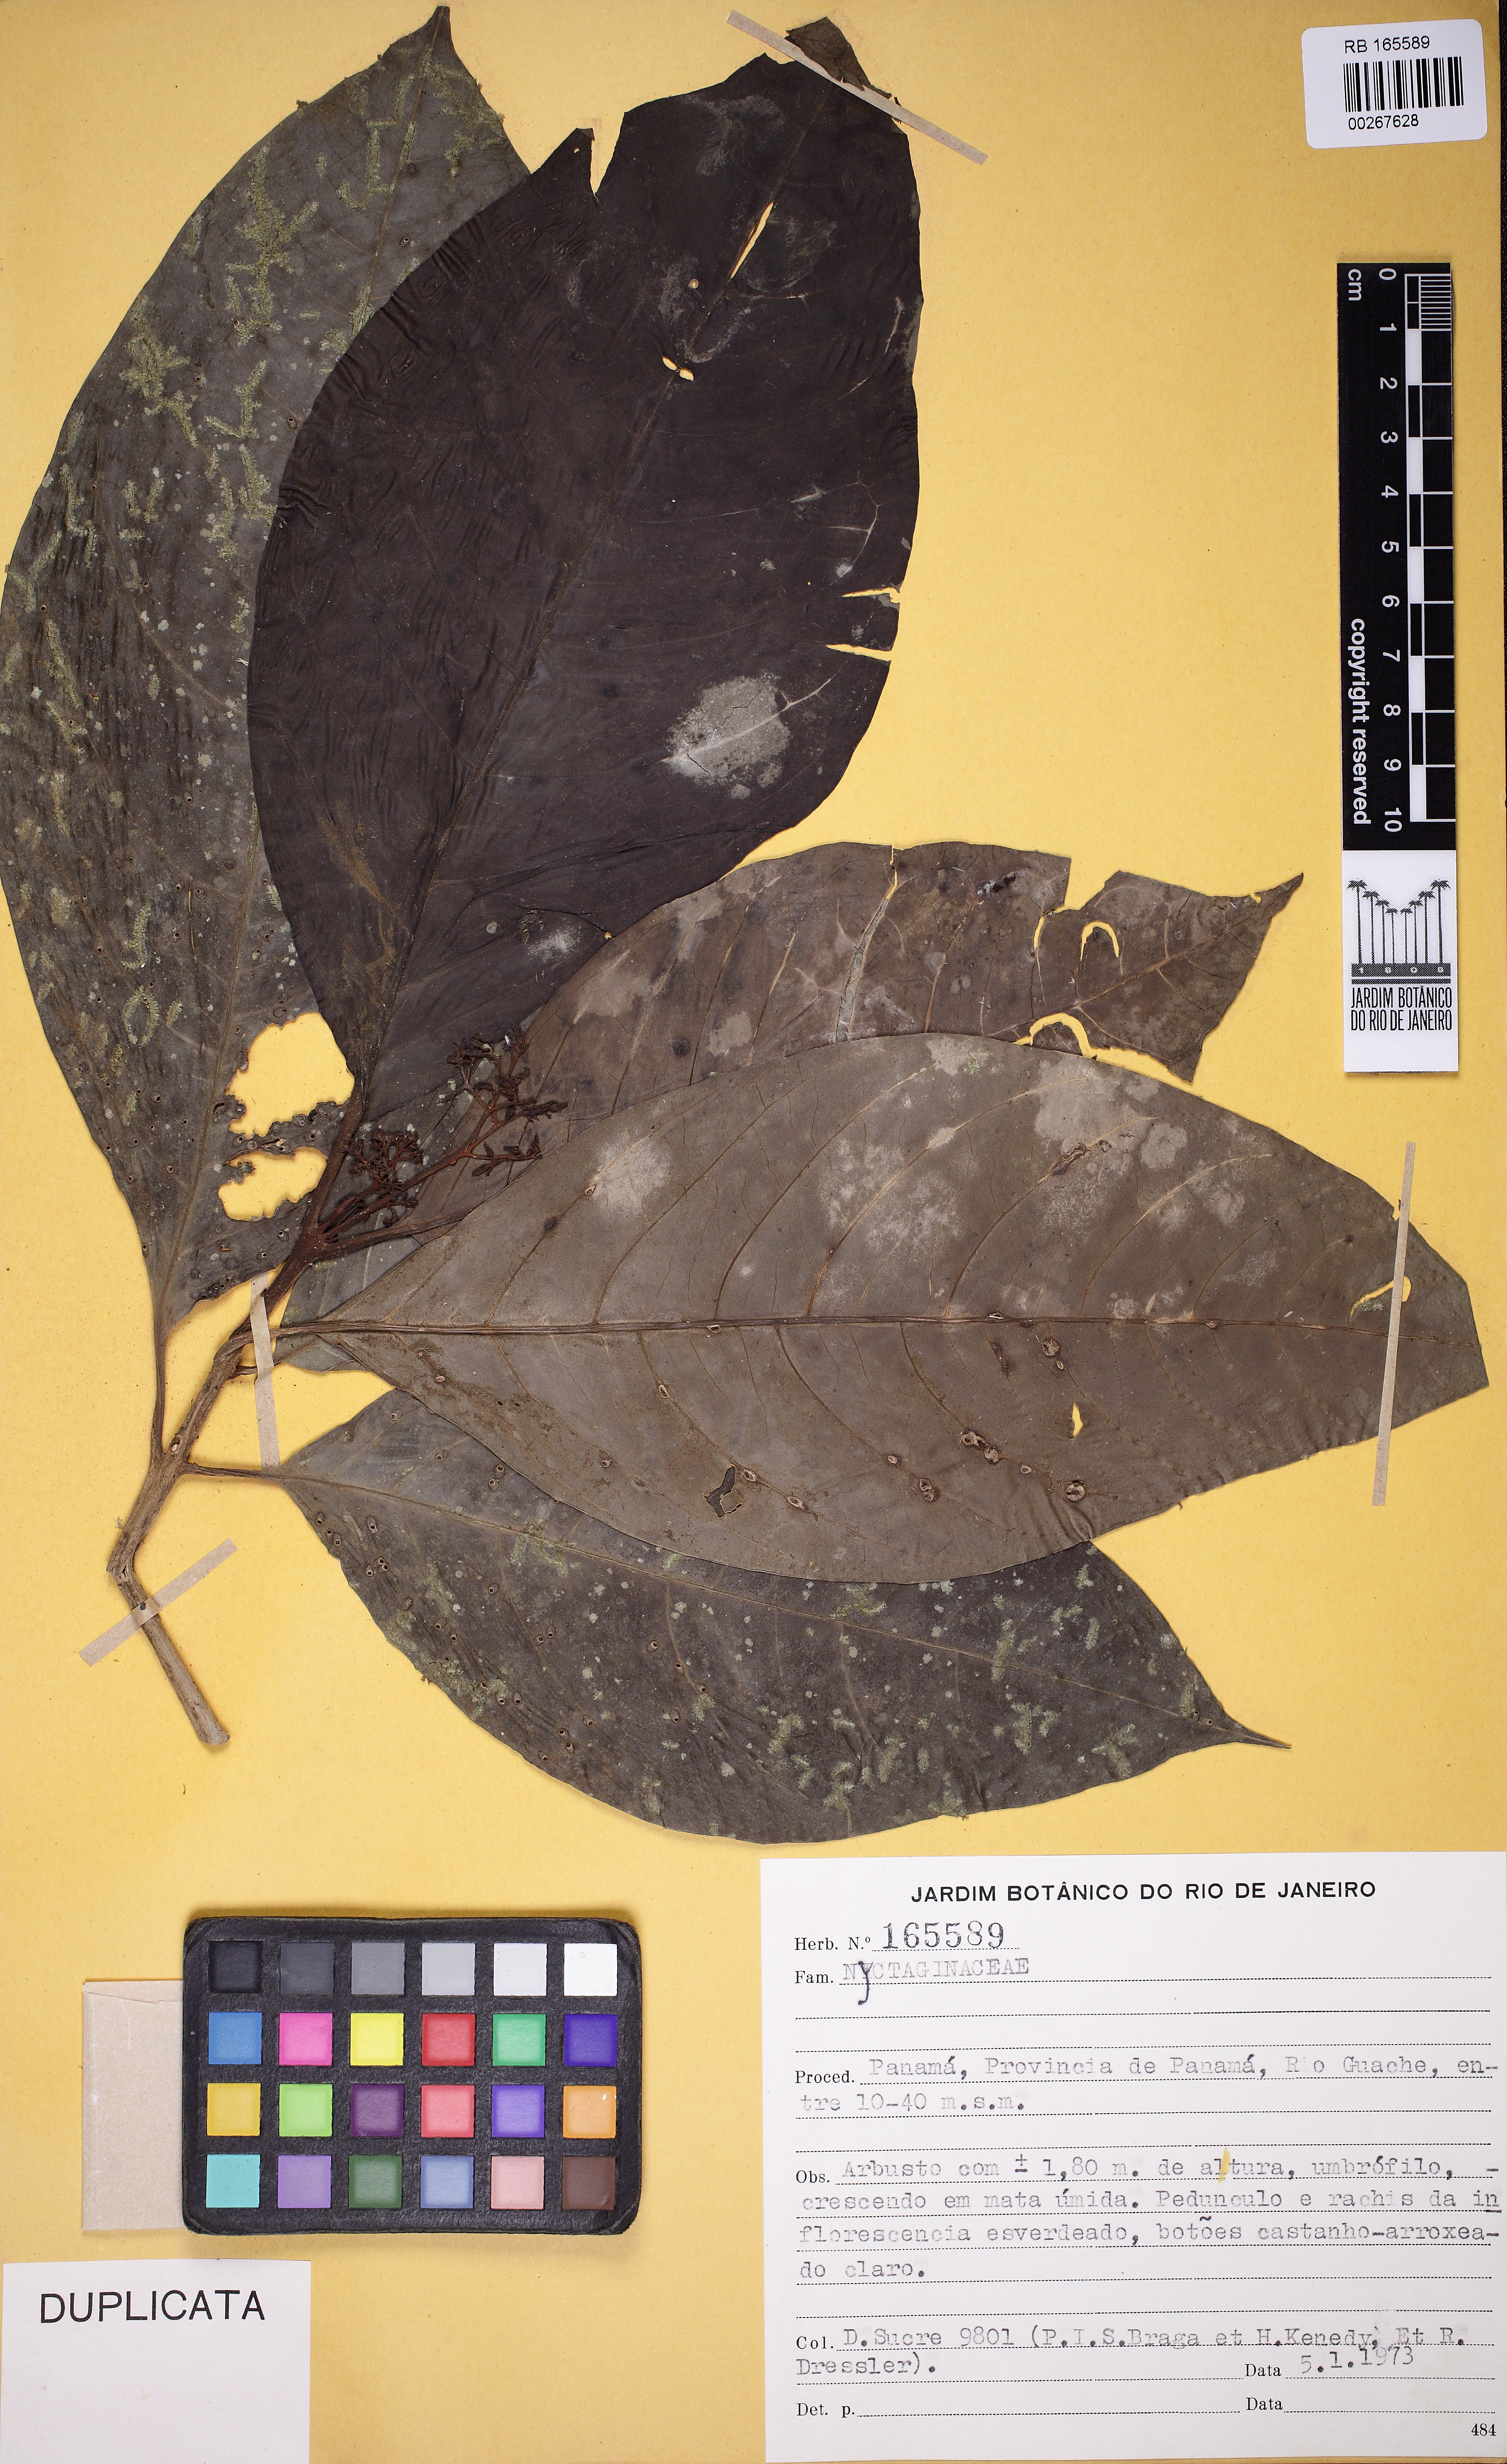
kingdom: Plantae
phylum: Tracheophyta
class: Magnoliopsida
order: Caryophyllales
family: Nyctaginaceae
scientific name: Nyctaginaceae
